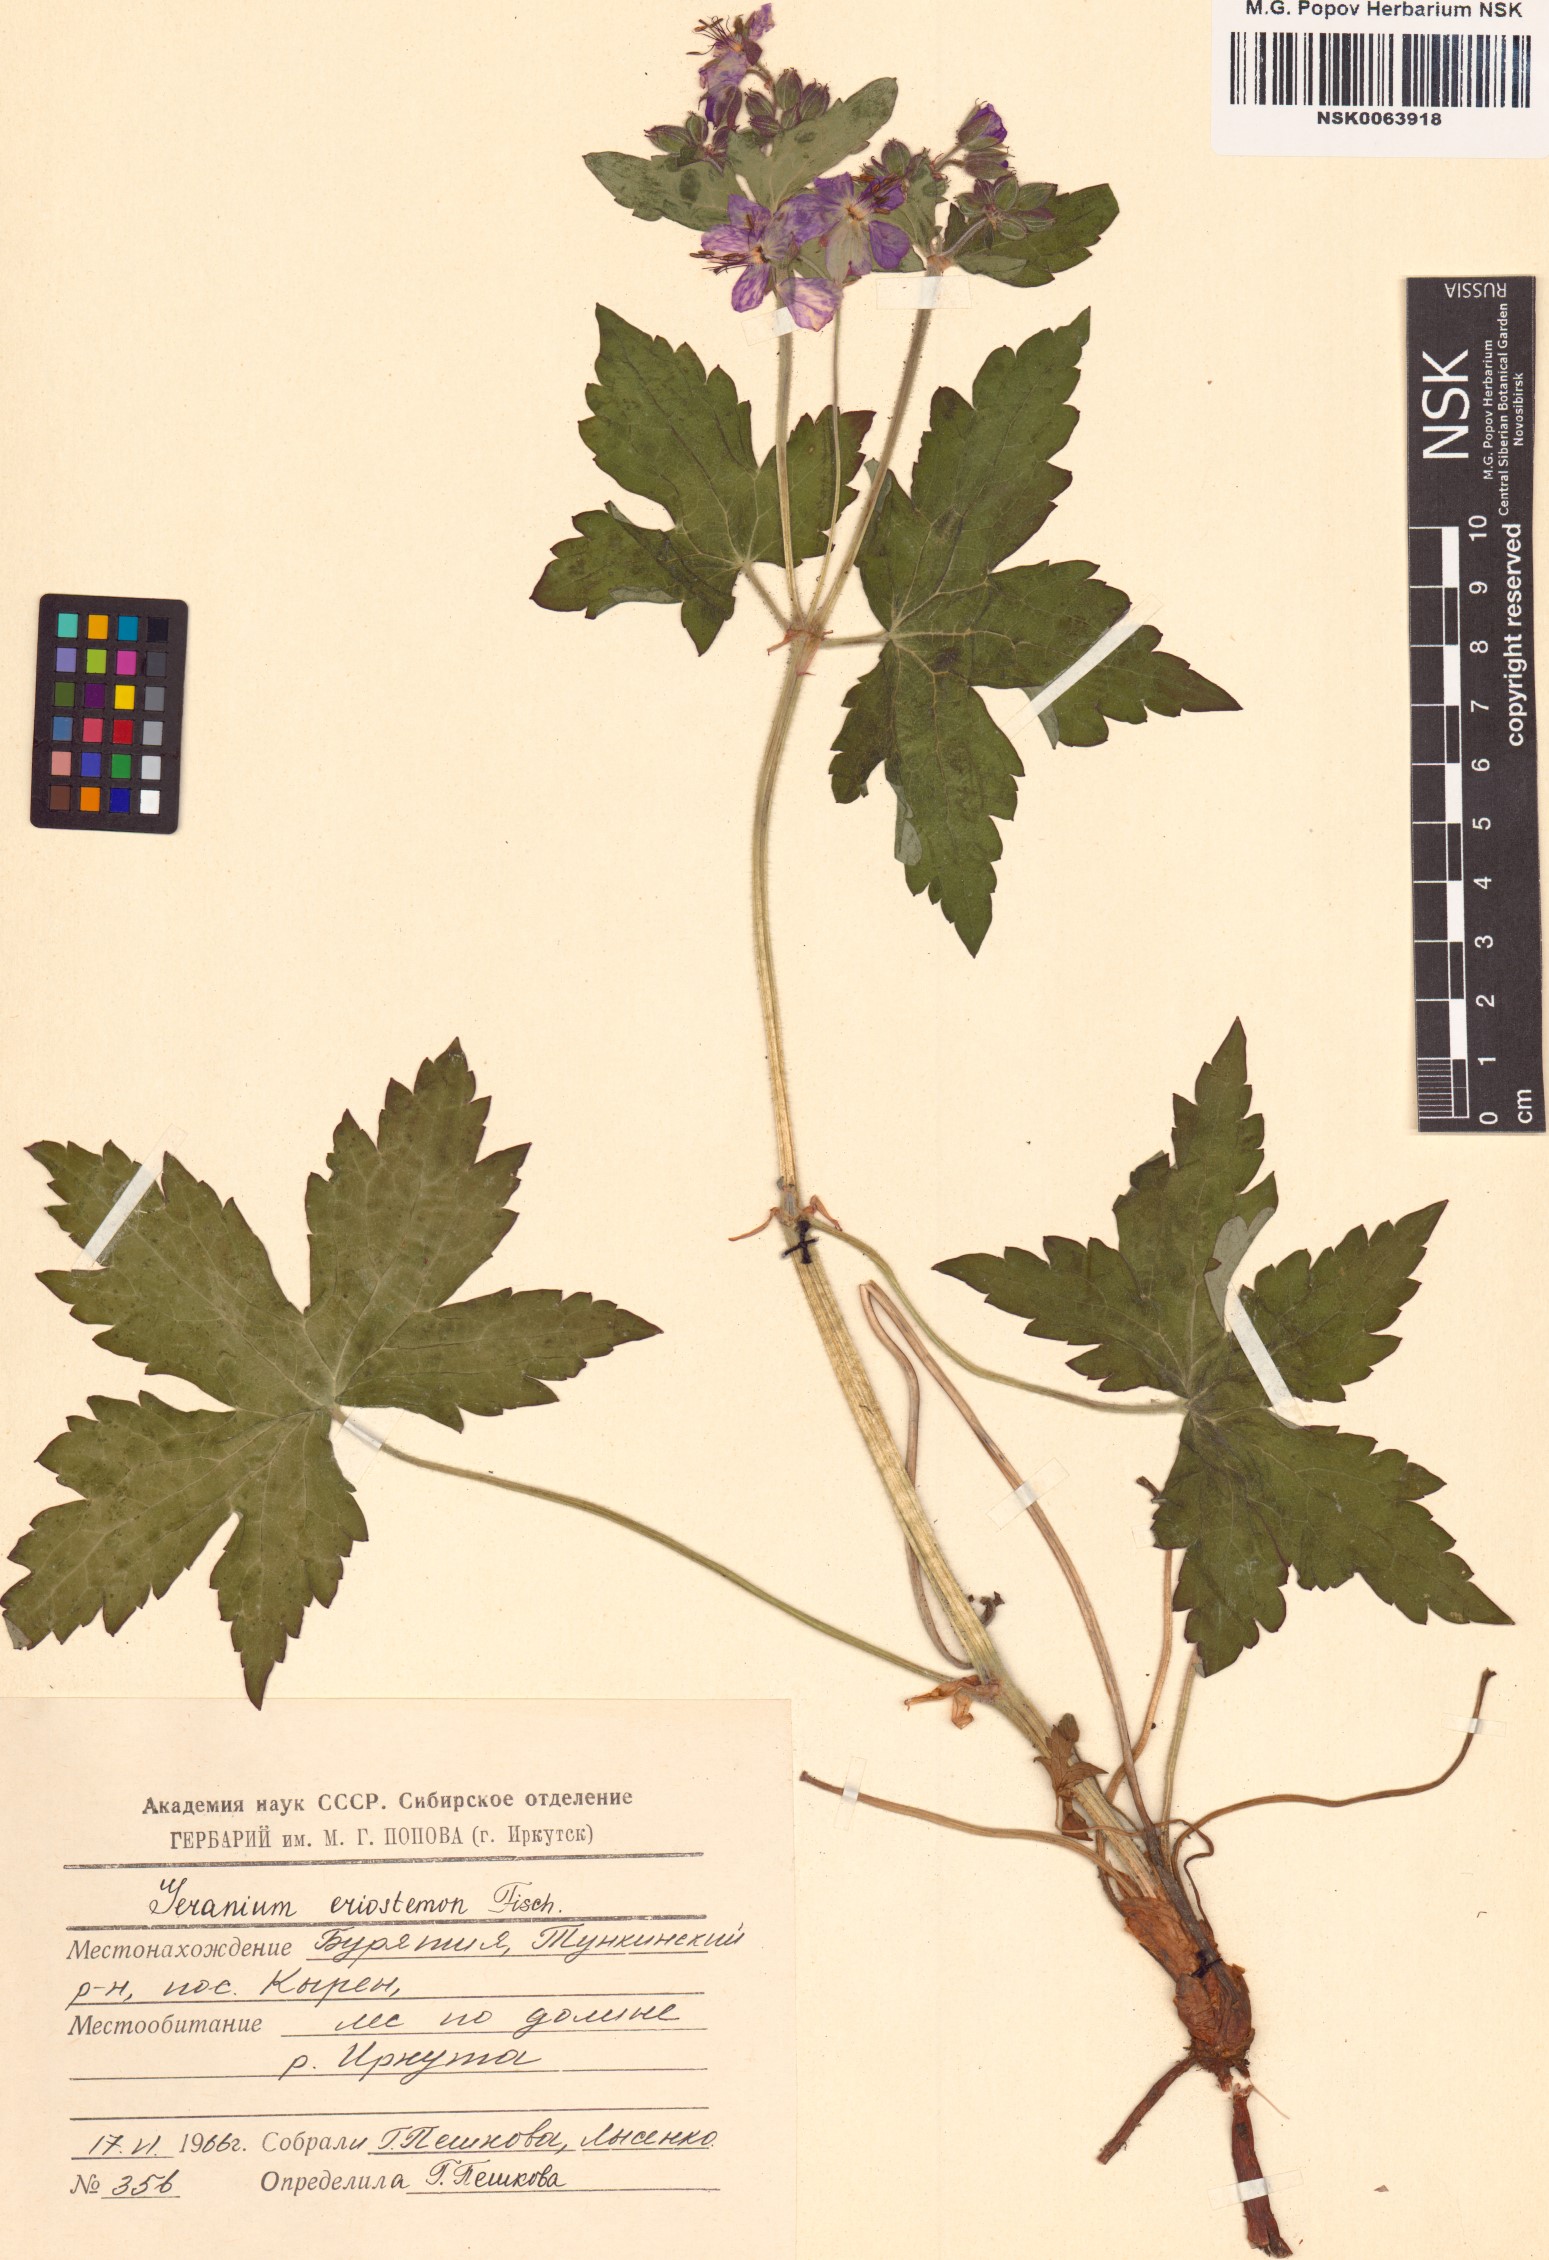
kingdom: Plantae
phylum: Tracheophyta
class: Magnoliopsida
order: Geraniales
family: Geraniaceae
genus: Geranium
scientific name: Geranium platyanthum
